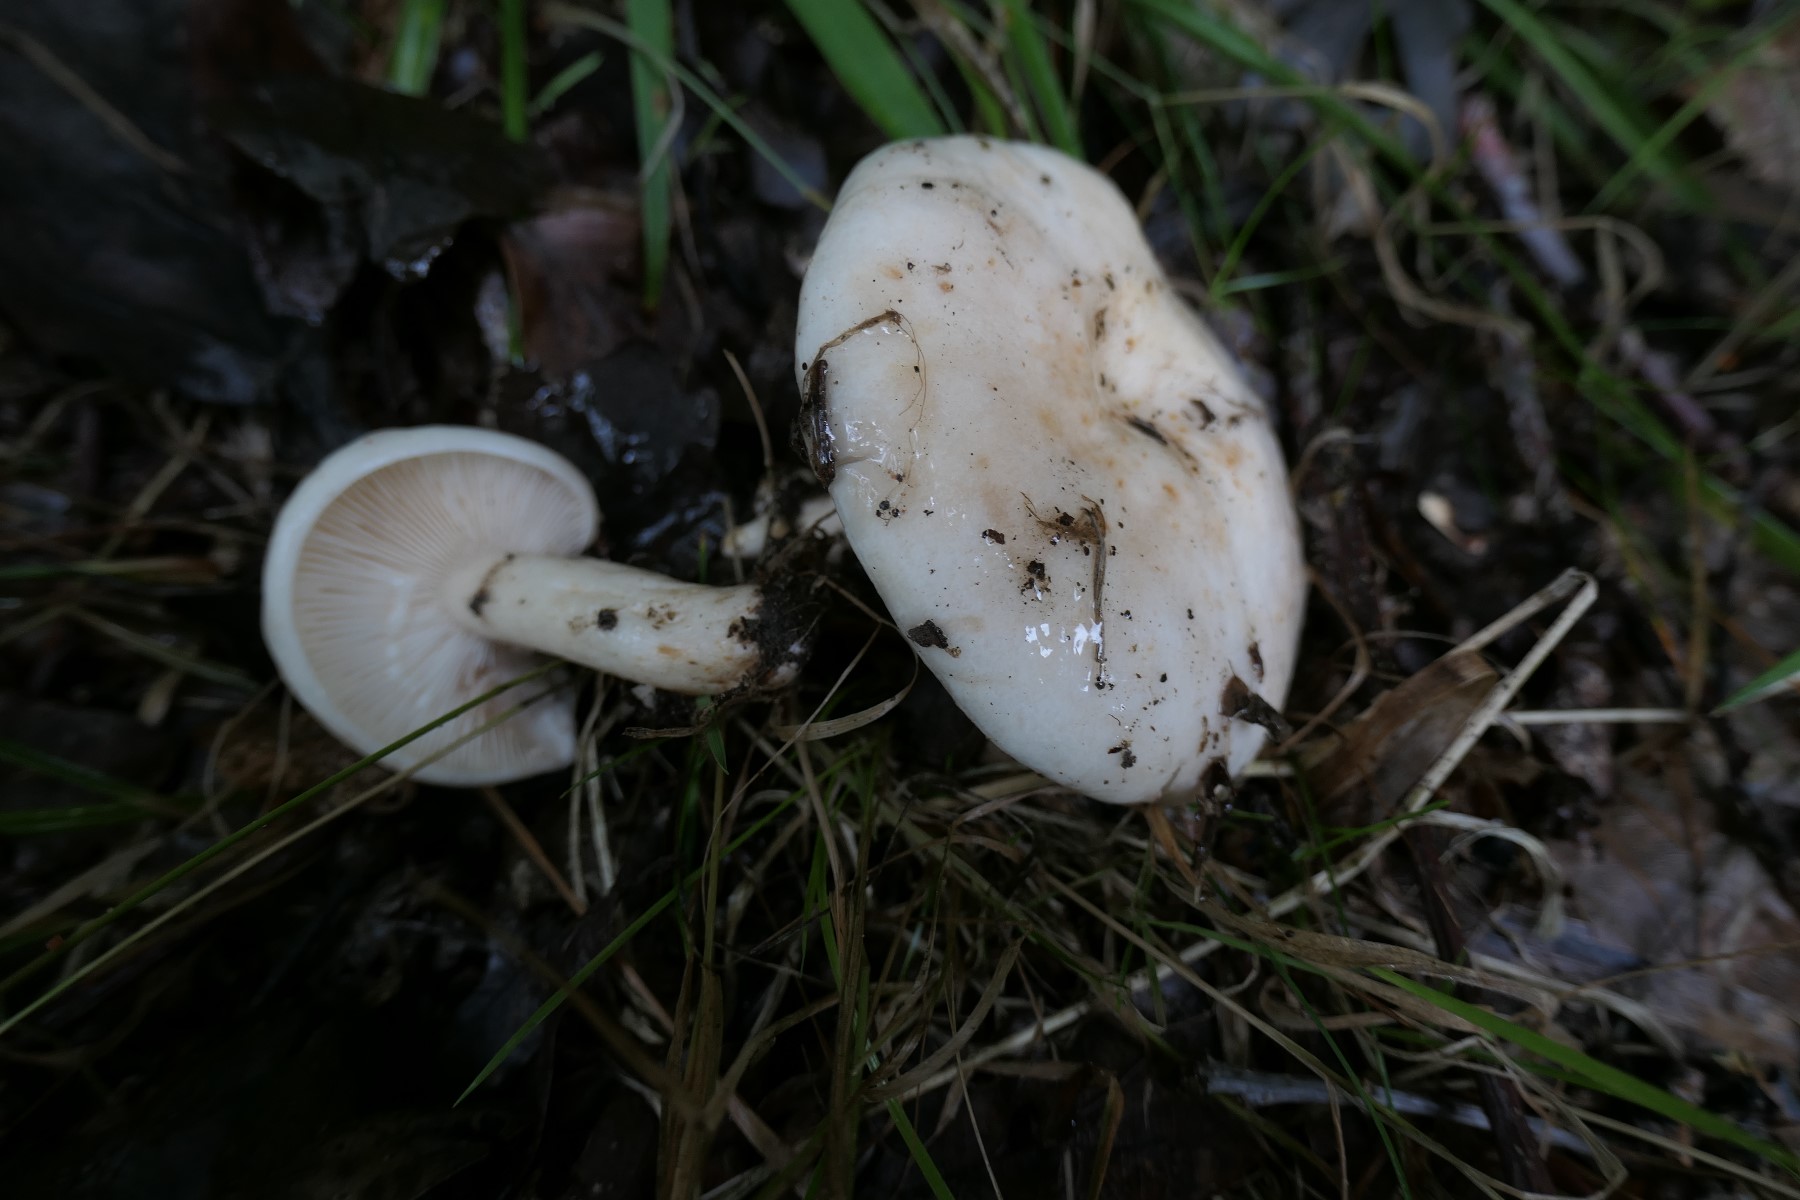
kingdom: Fungi
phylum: Basidiomycota
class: Agaricomycetes
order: Russulales
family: Russulaceae
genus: Lactarius
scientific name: Lactarius pallidus
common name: bleg mælkehat
